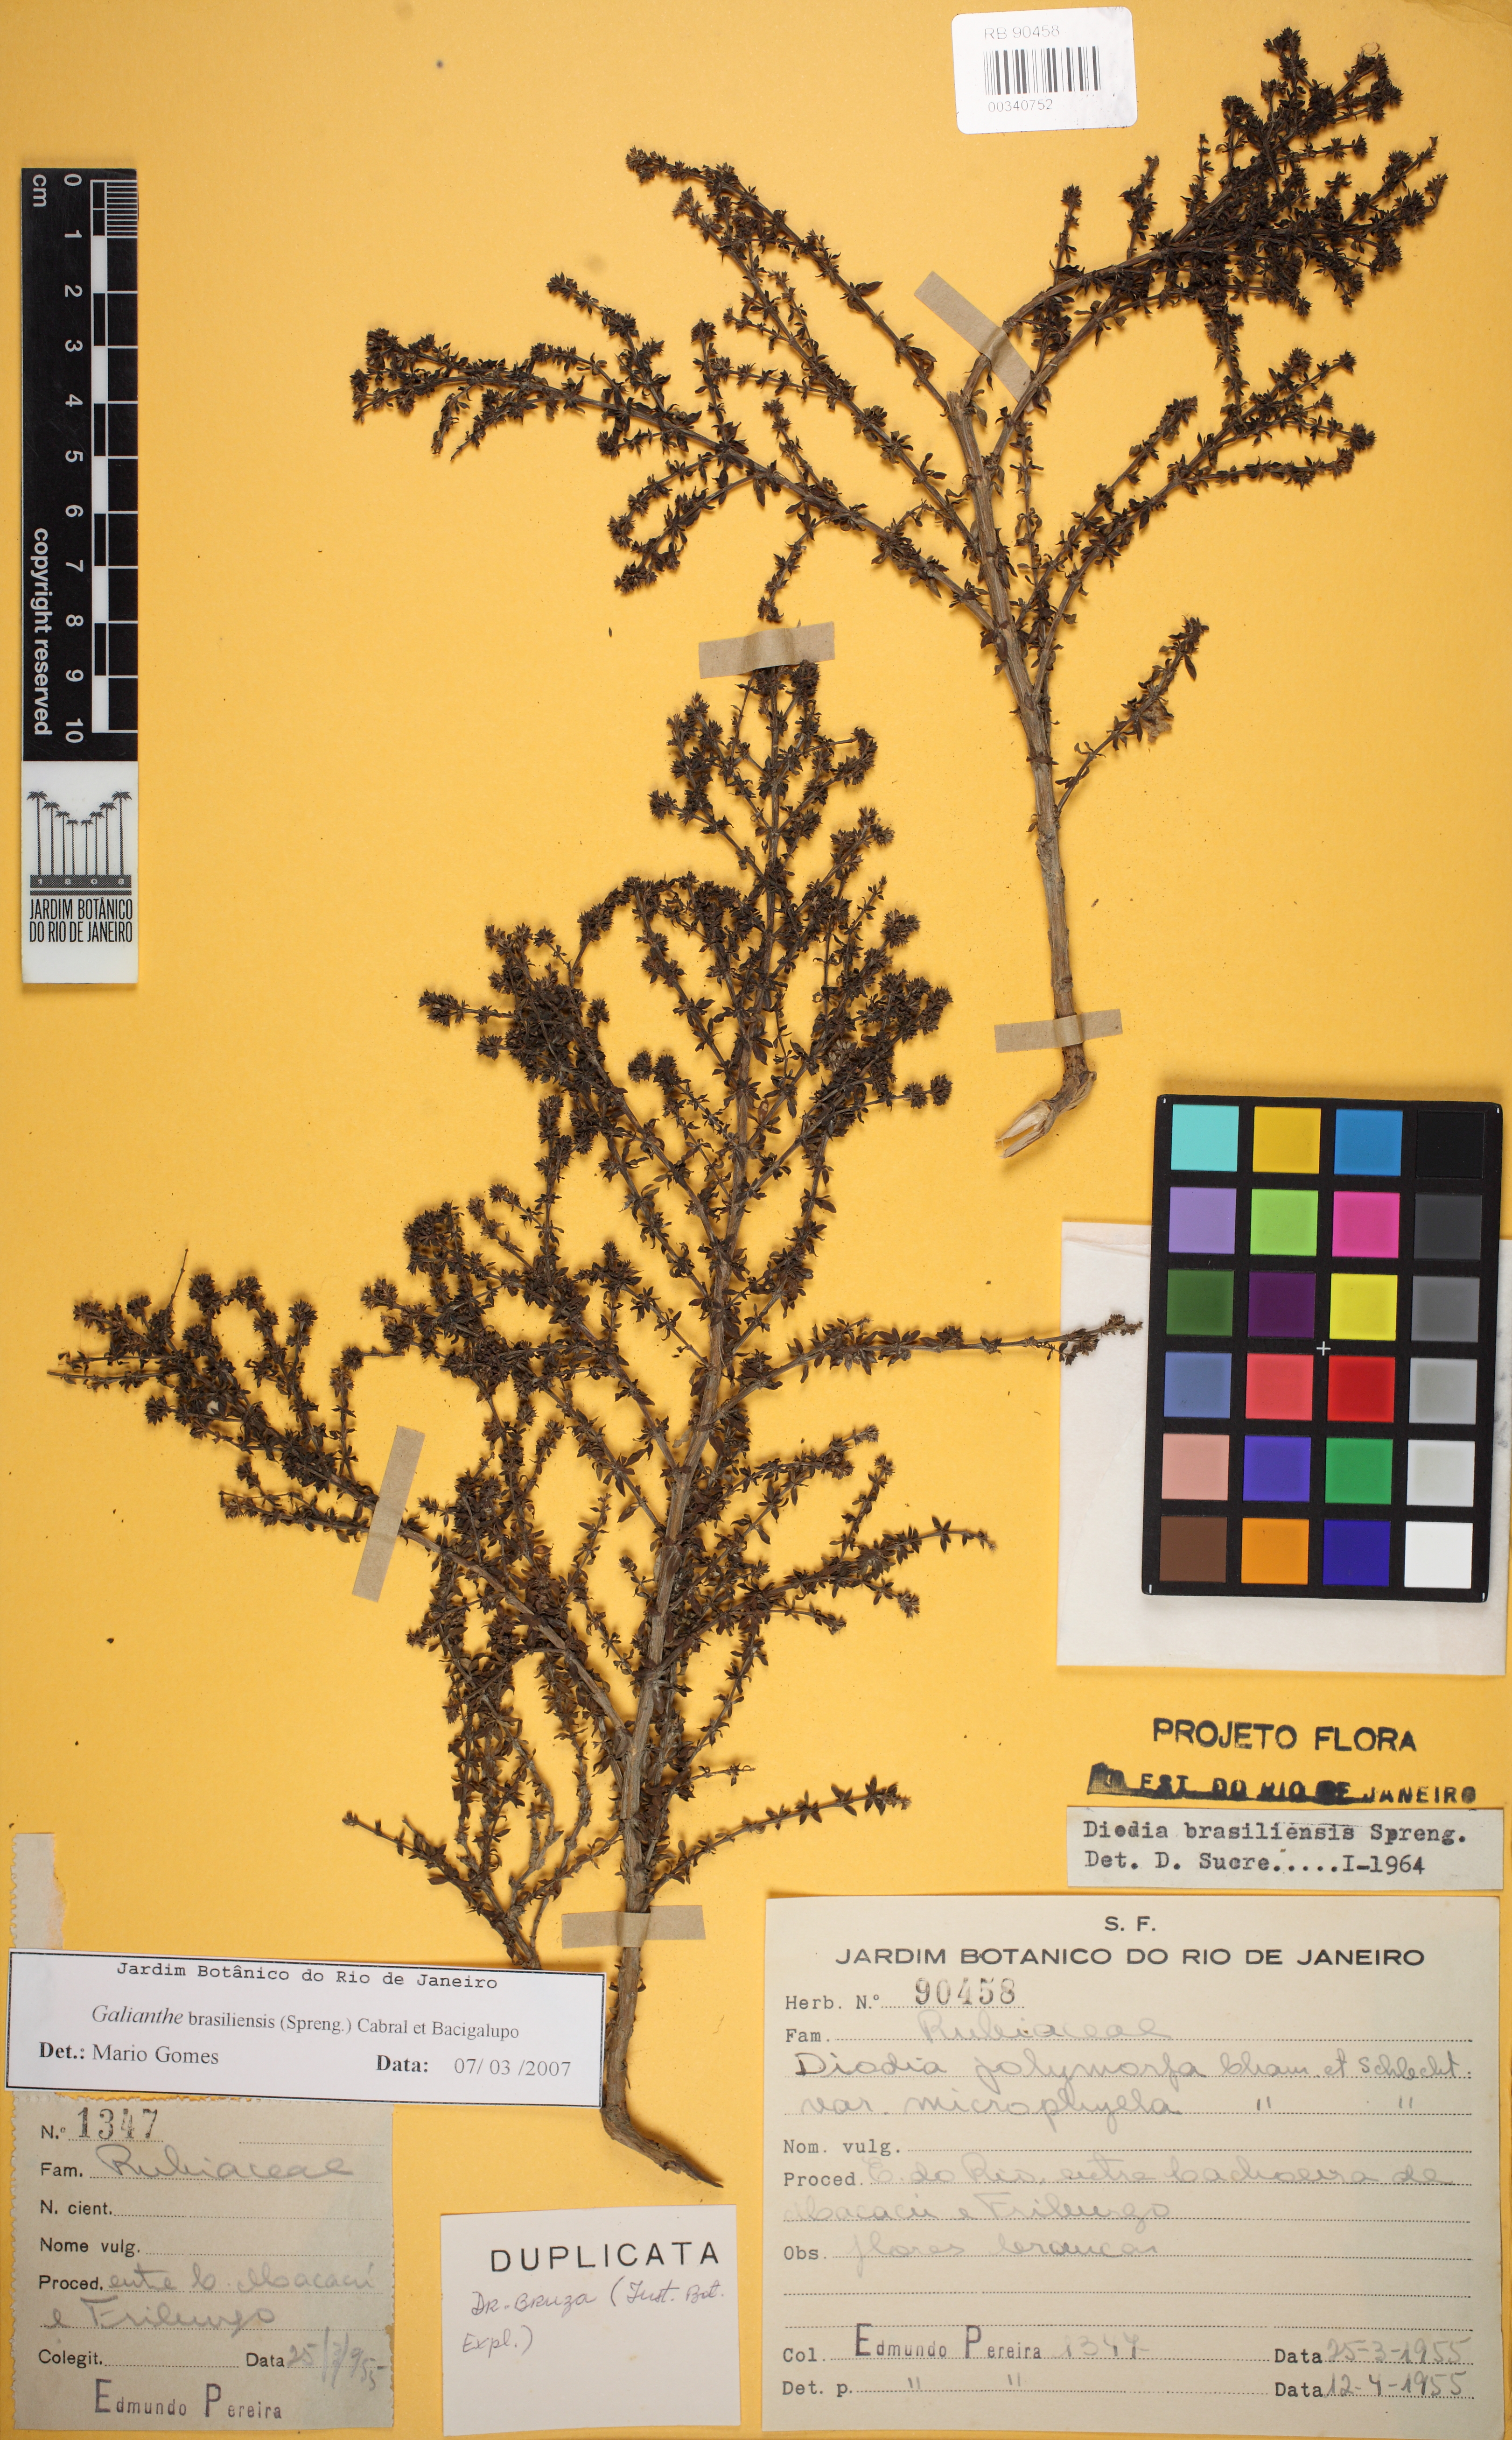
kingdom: Plantae
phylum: Tracheophyta
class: Magnoliopsida
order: Gentianales
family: Rubiaceae
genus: Galianthe
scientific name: Galianthe brasiliensis
